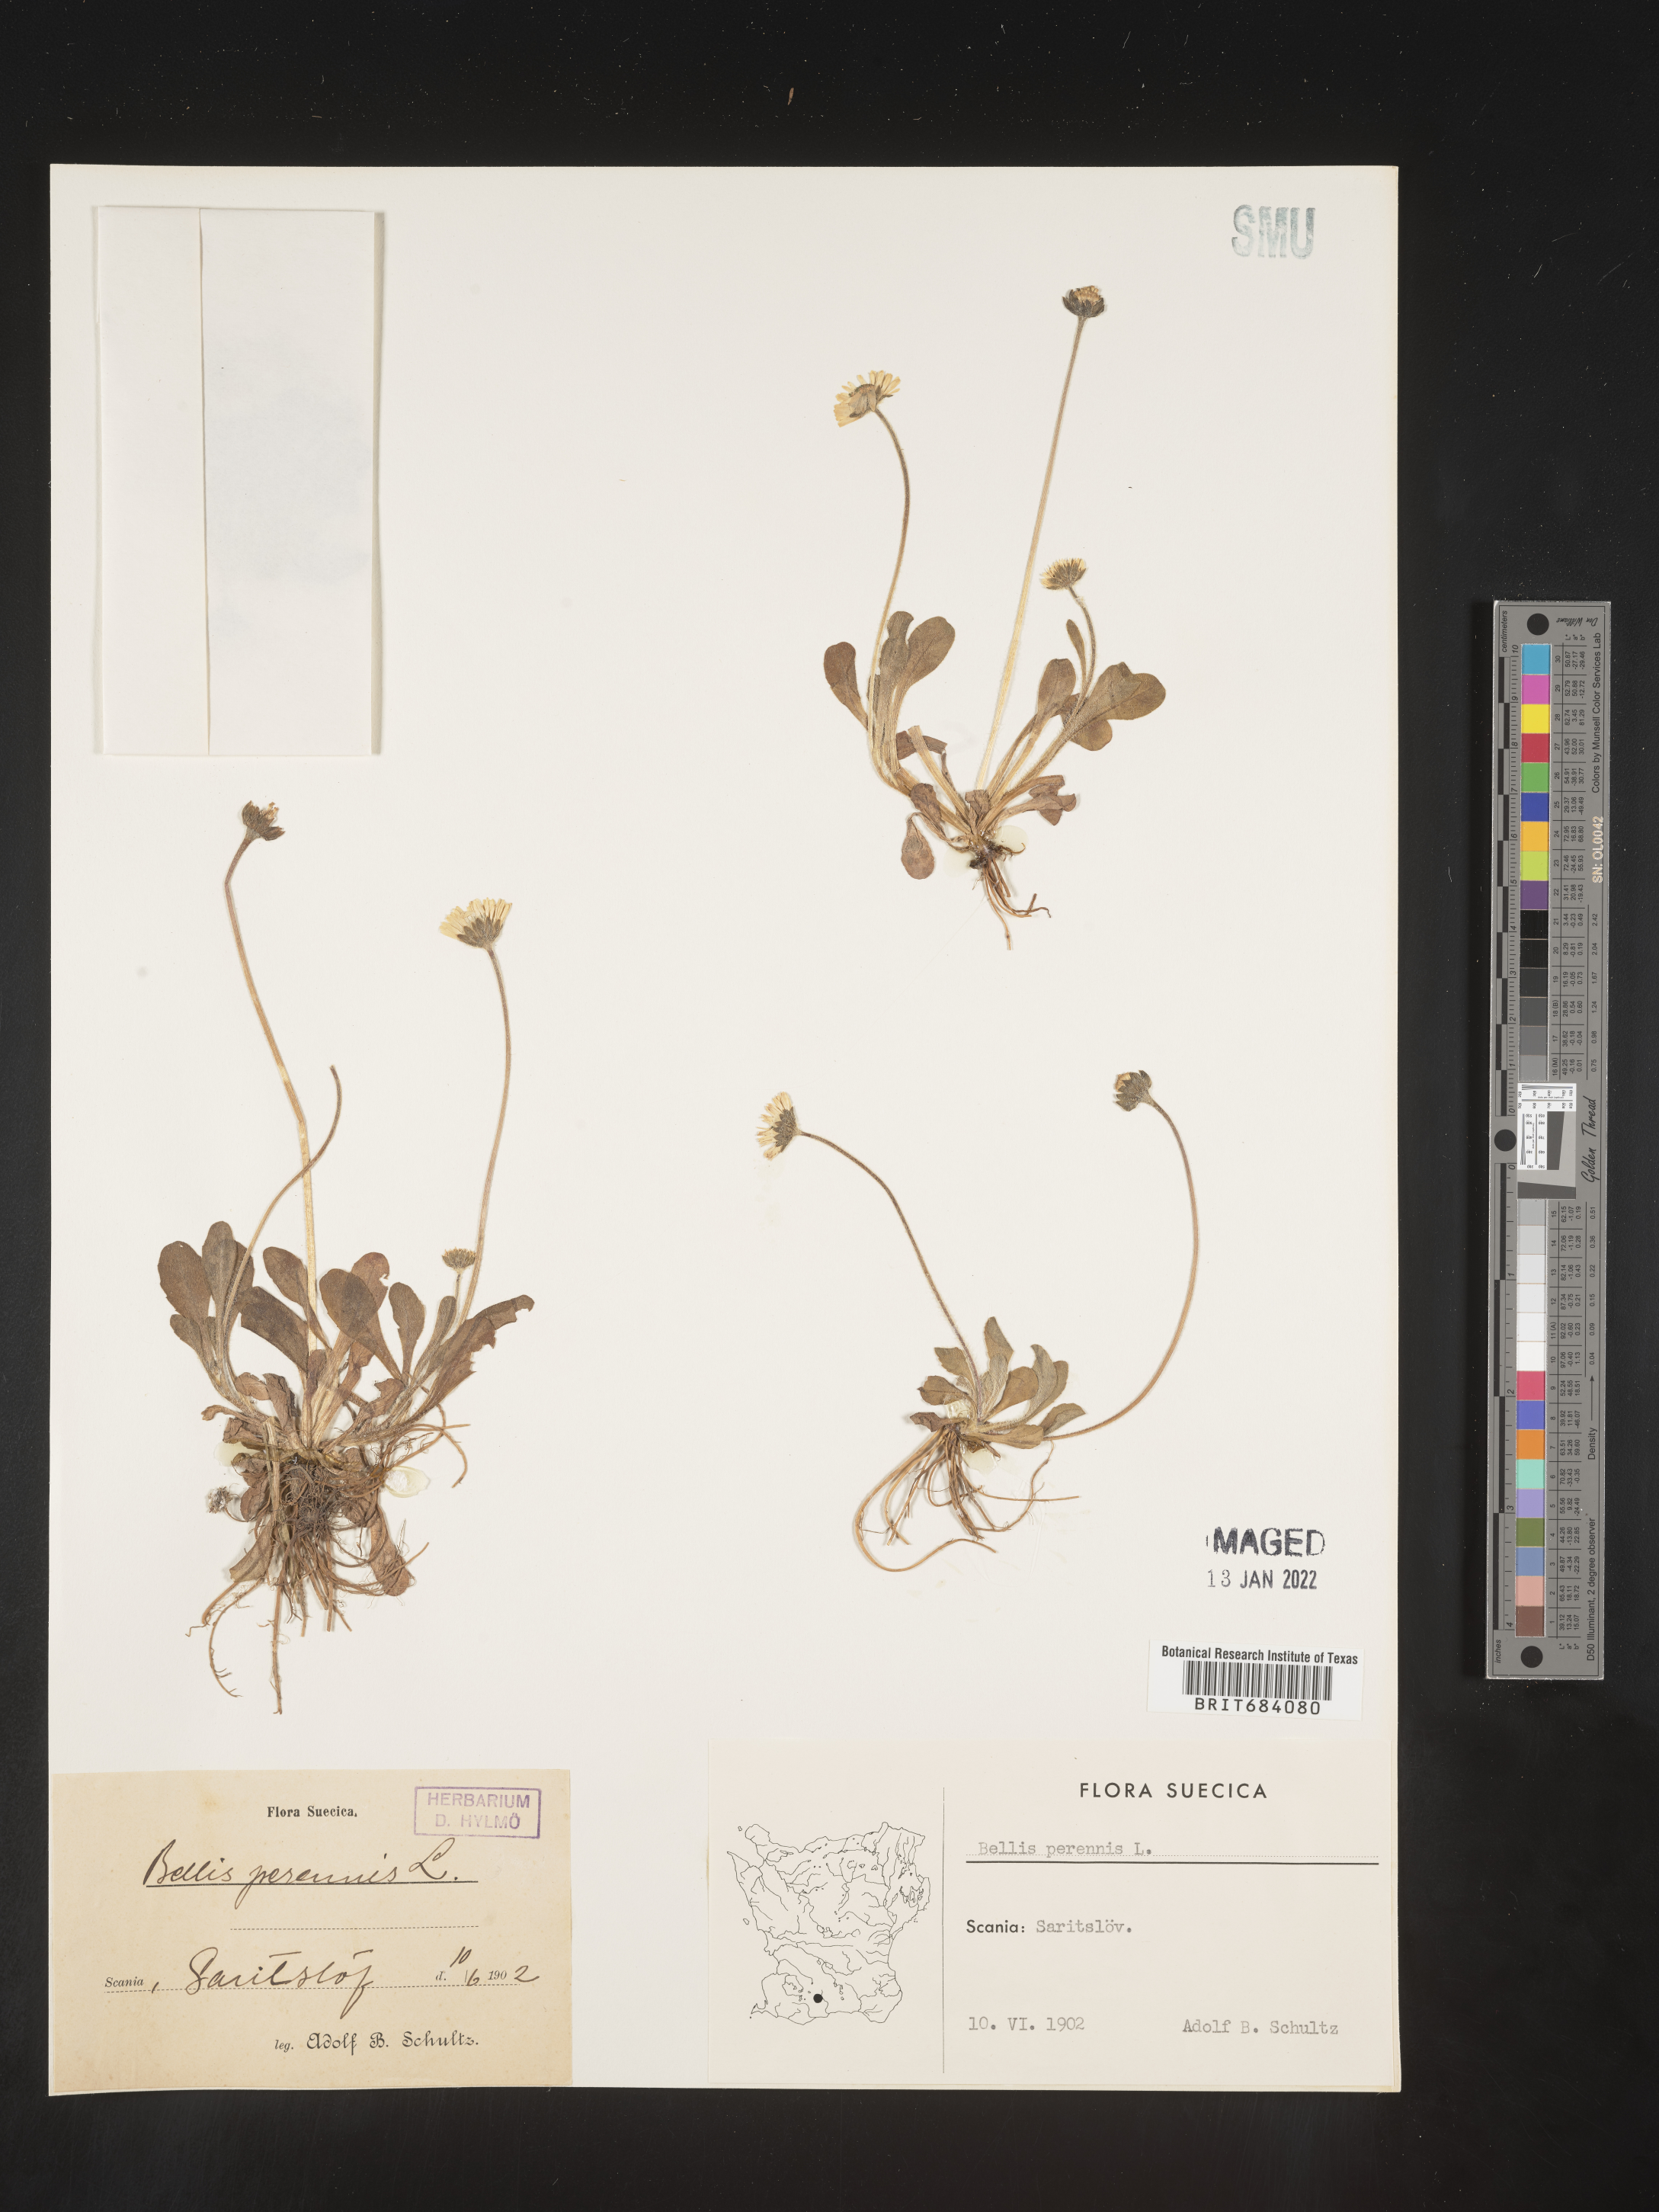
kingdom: Plantae
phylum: Tracheophyta
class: Magnoliopsida
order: Asterales
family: Asteraceae
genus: Bellis
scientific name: Bellis
